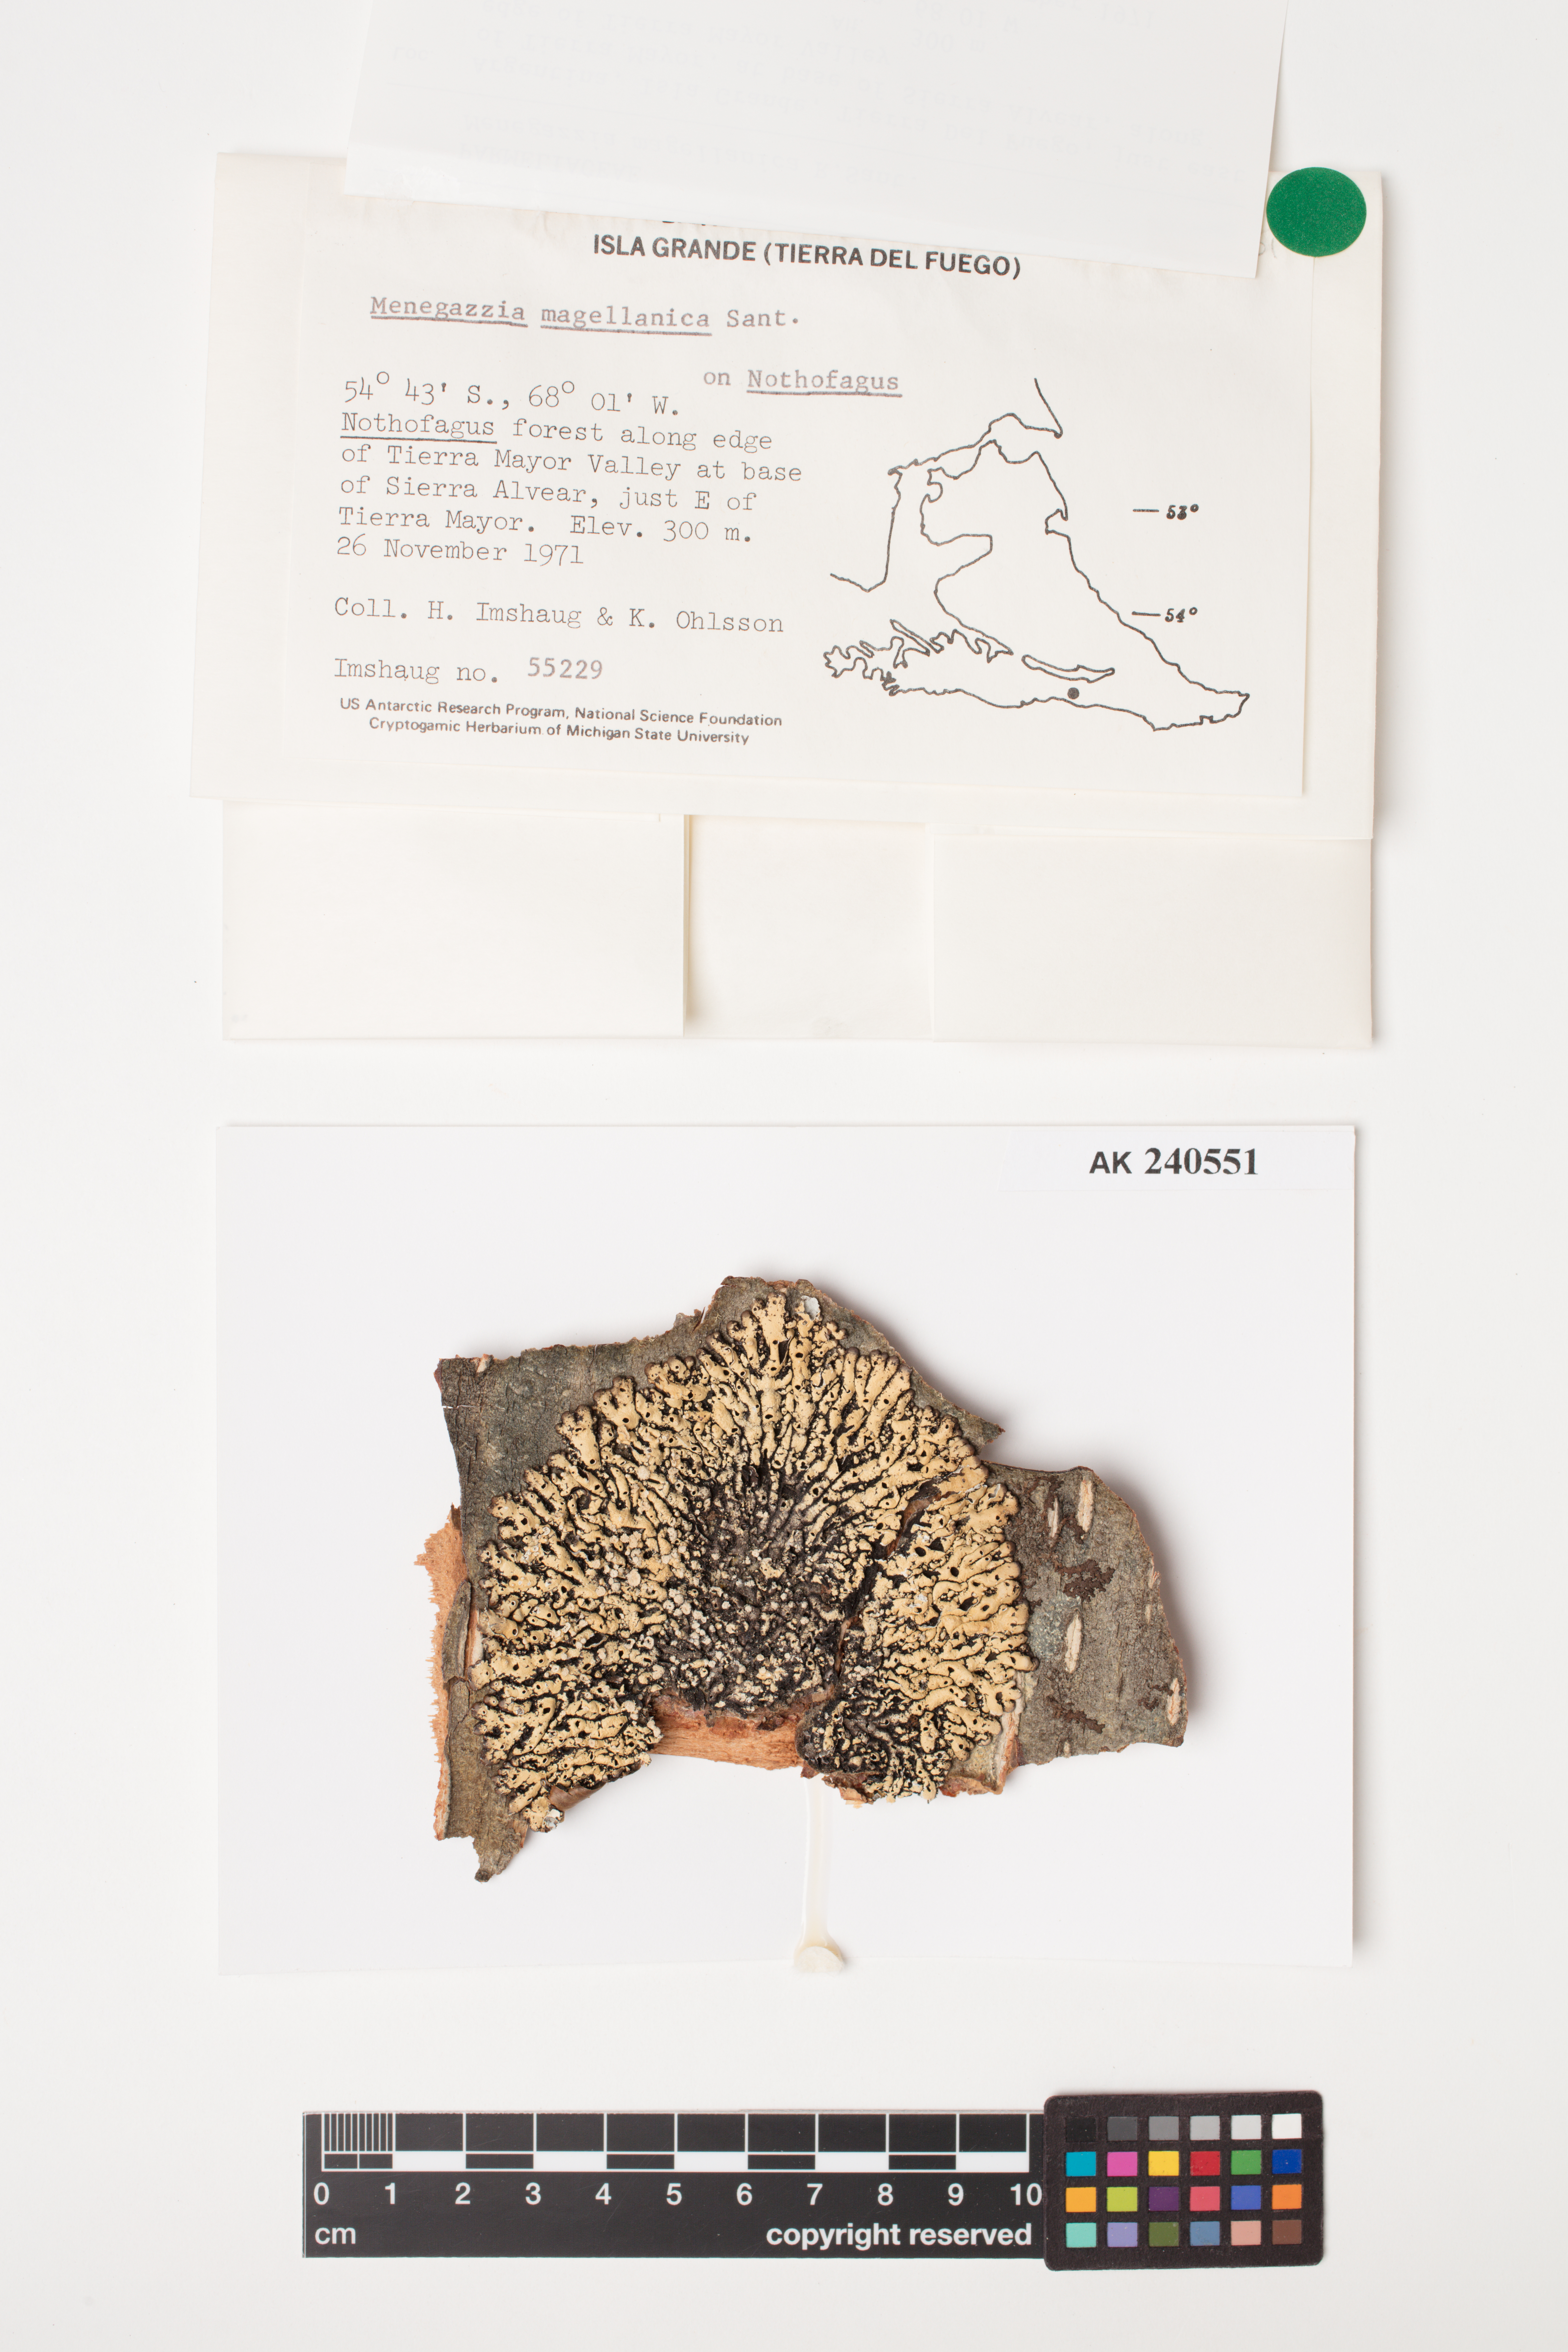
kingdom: Fungi
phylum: Ascomycota
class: Lecanoromycetes
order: Lecanorales
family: Parmeliaceae
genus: Menegazzia
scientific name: Menegazzia subpertusa
